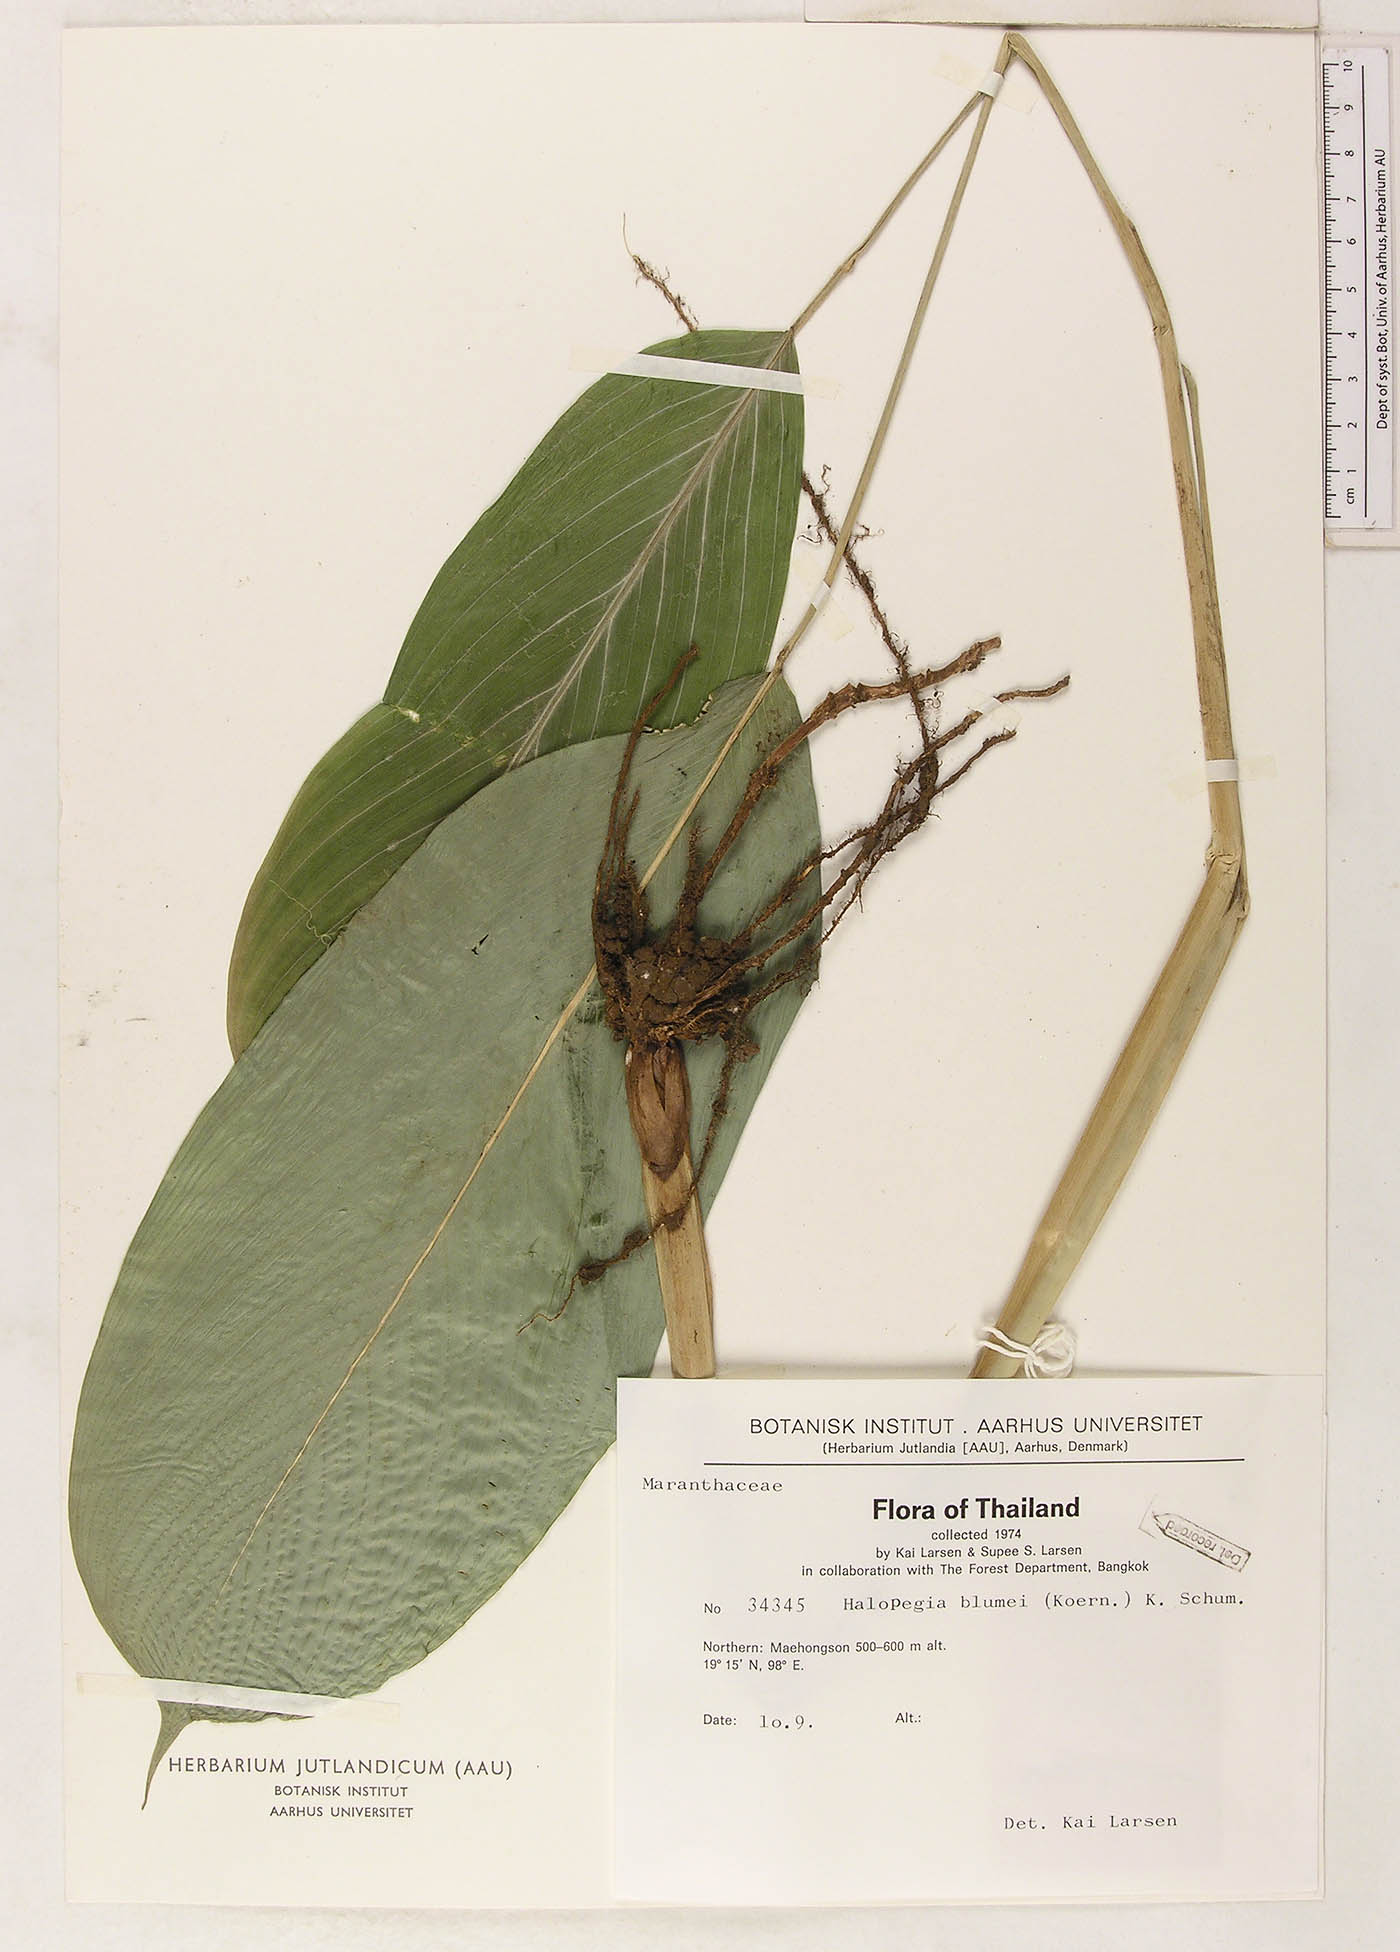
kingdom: Plantae
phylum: Tracheophyta
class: Liliopsida
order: Zingiberales
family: Marantaceae
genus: Halopegia
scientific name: Halopegia blumei
